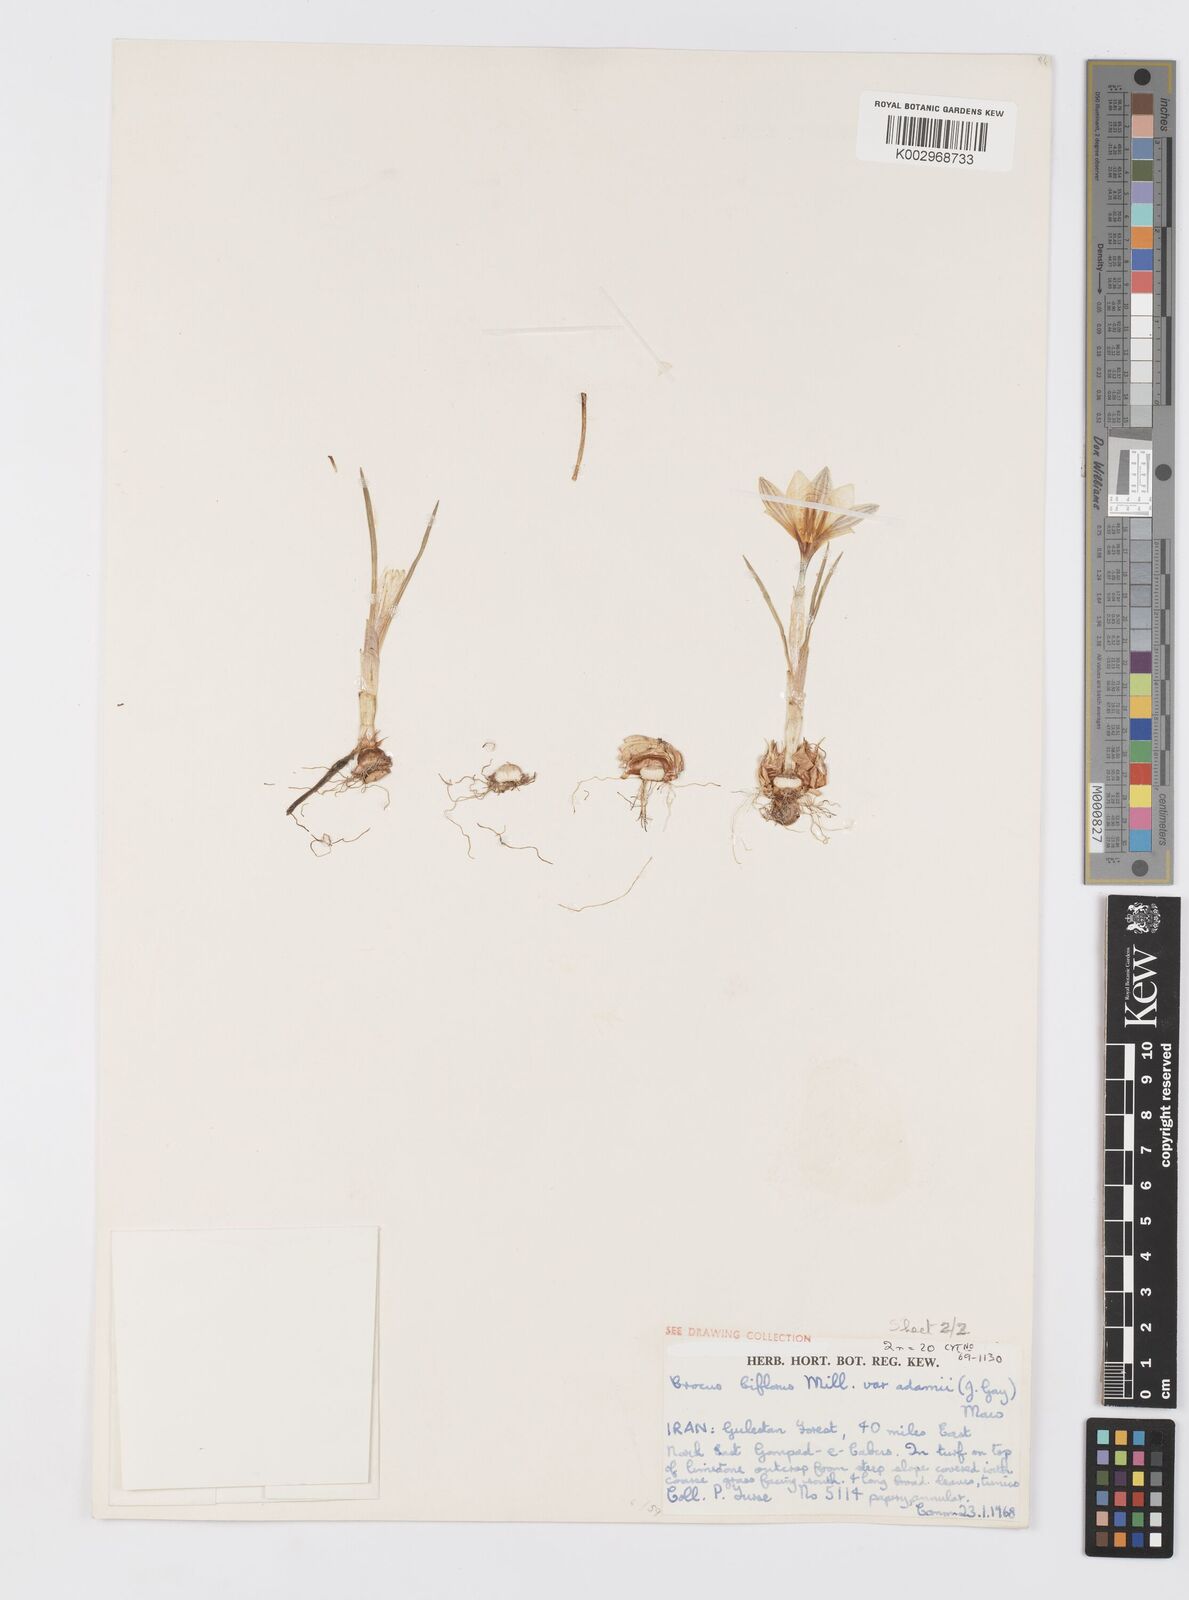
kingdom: Plantae
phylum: Tracheophyta
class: Liliopsida
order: Asparagales
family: Iridaceae
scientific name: Iridaceae
